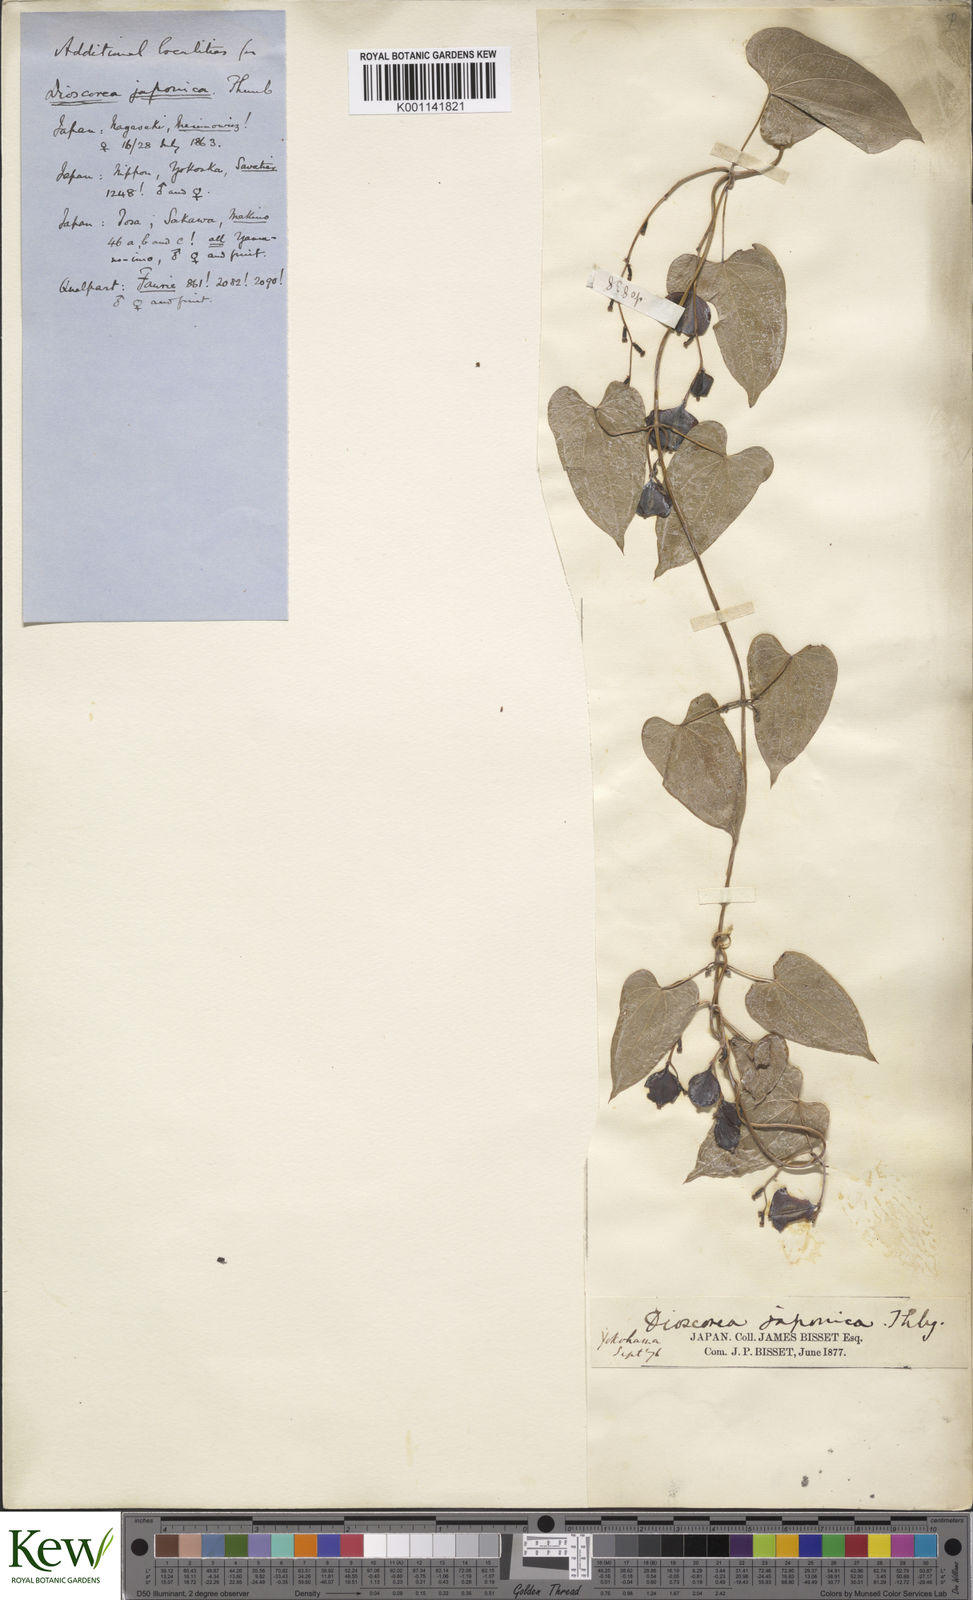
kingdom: Plantae
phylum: Tracheophyta
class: Liliopsida
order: Dioscoreales
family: Dioscoreaceae
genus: Dioscorea
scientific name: Dioscorea japonica
